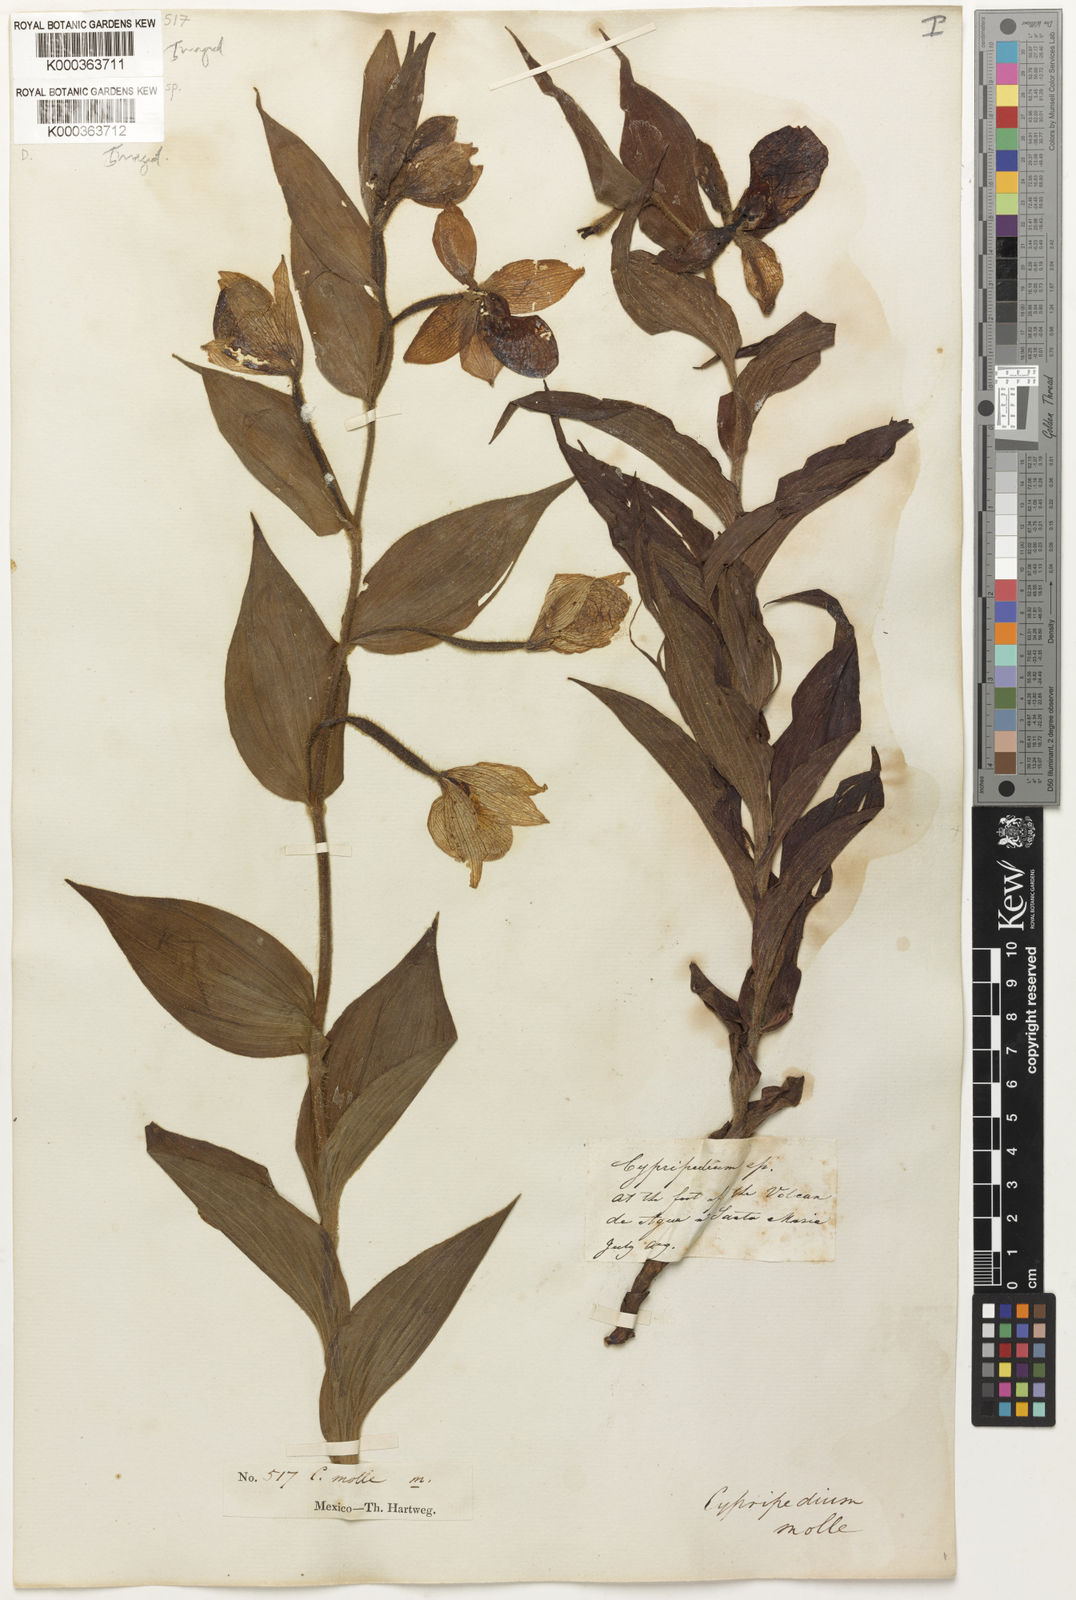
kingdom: Plantae
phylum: Tracheophyta
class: Liliopsida
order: Asparagales
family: Orchidaceae
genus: Cypripedium
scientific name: Cypripedium molle
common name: Soft cypripedium
